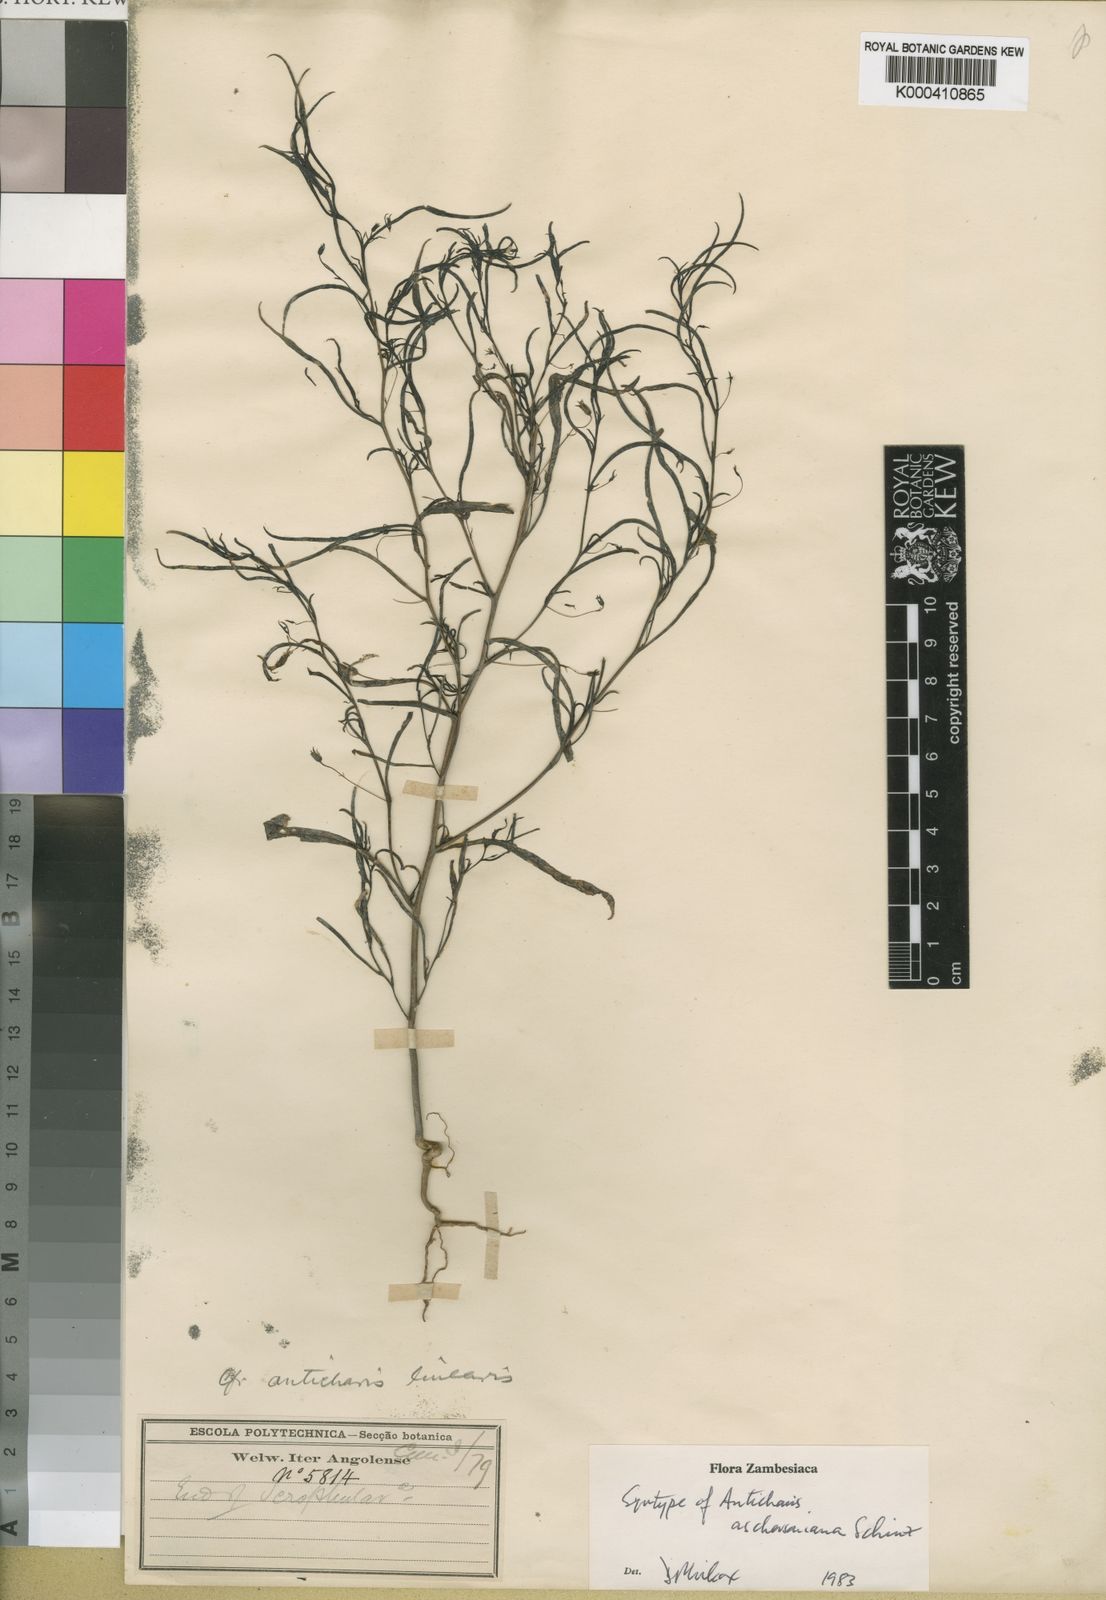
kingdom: Plantae
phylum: Tracheophyta
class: Magnoliopsida
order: Lamiales
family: Scrophulariaceae
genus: Anticharis
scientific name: Anticharis senegalensis
